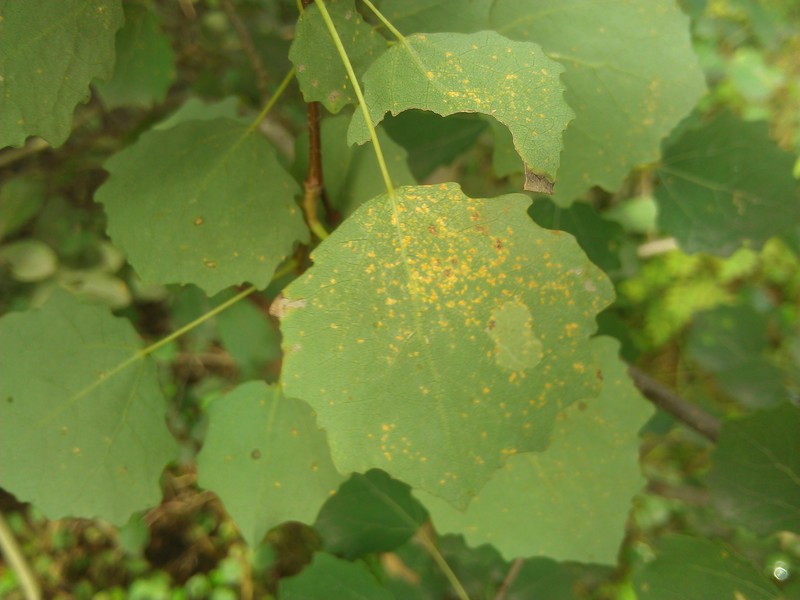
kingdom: Fungi
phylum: Basidiomycota
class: Pucciniomycetes
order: Pucciniales
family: Melampsoraceae
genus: Melampsora
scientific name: Melampsora
